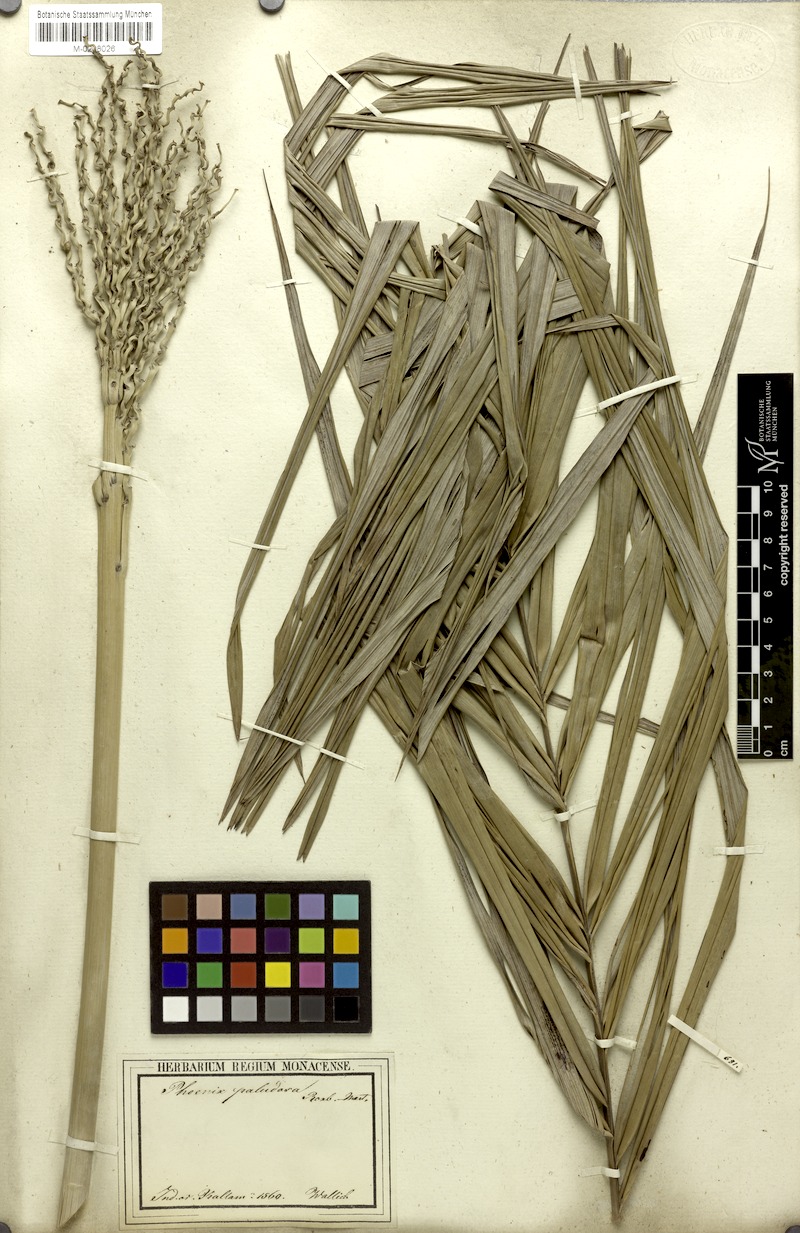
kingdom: Plantae
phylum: Tracheophyta
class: Liliopsida
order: Arecales
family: Arecaceae
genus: Phoenix
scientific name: Phoenix paludosa
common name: Mangrove date palm
